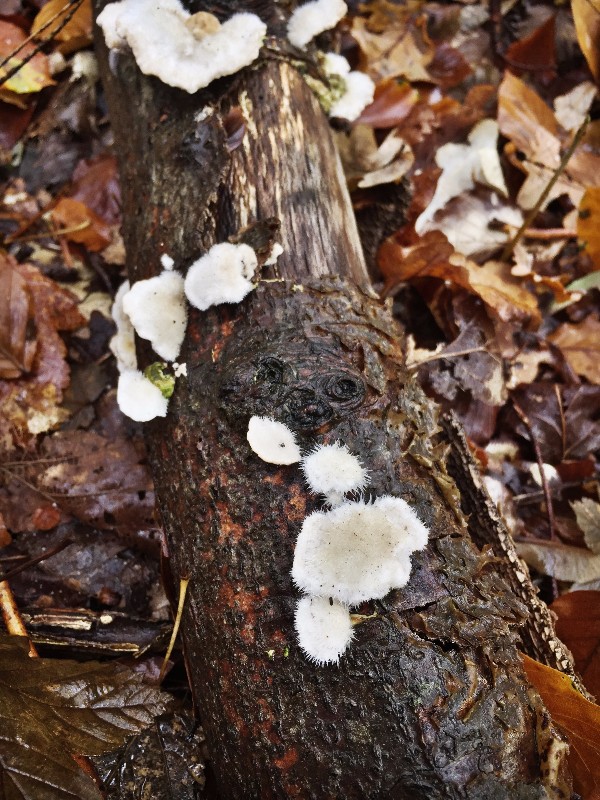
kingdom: Fungi
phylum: Basidiomycota
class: Agaricomycetes
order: Polyporales
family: Polyporaceae
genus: Trametes
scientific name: Trametes hirsuta
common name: håret læderporesvamp
